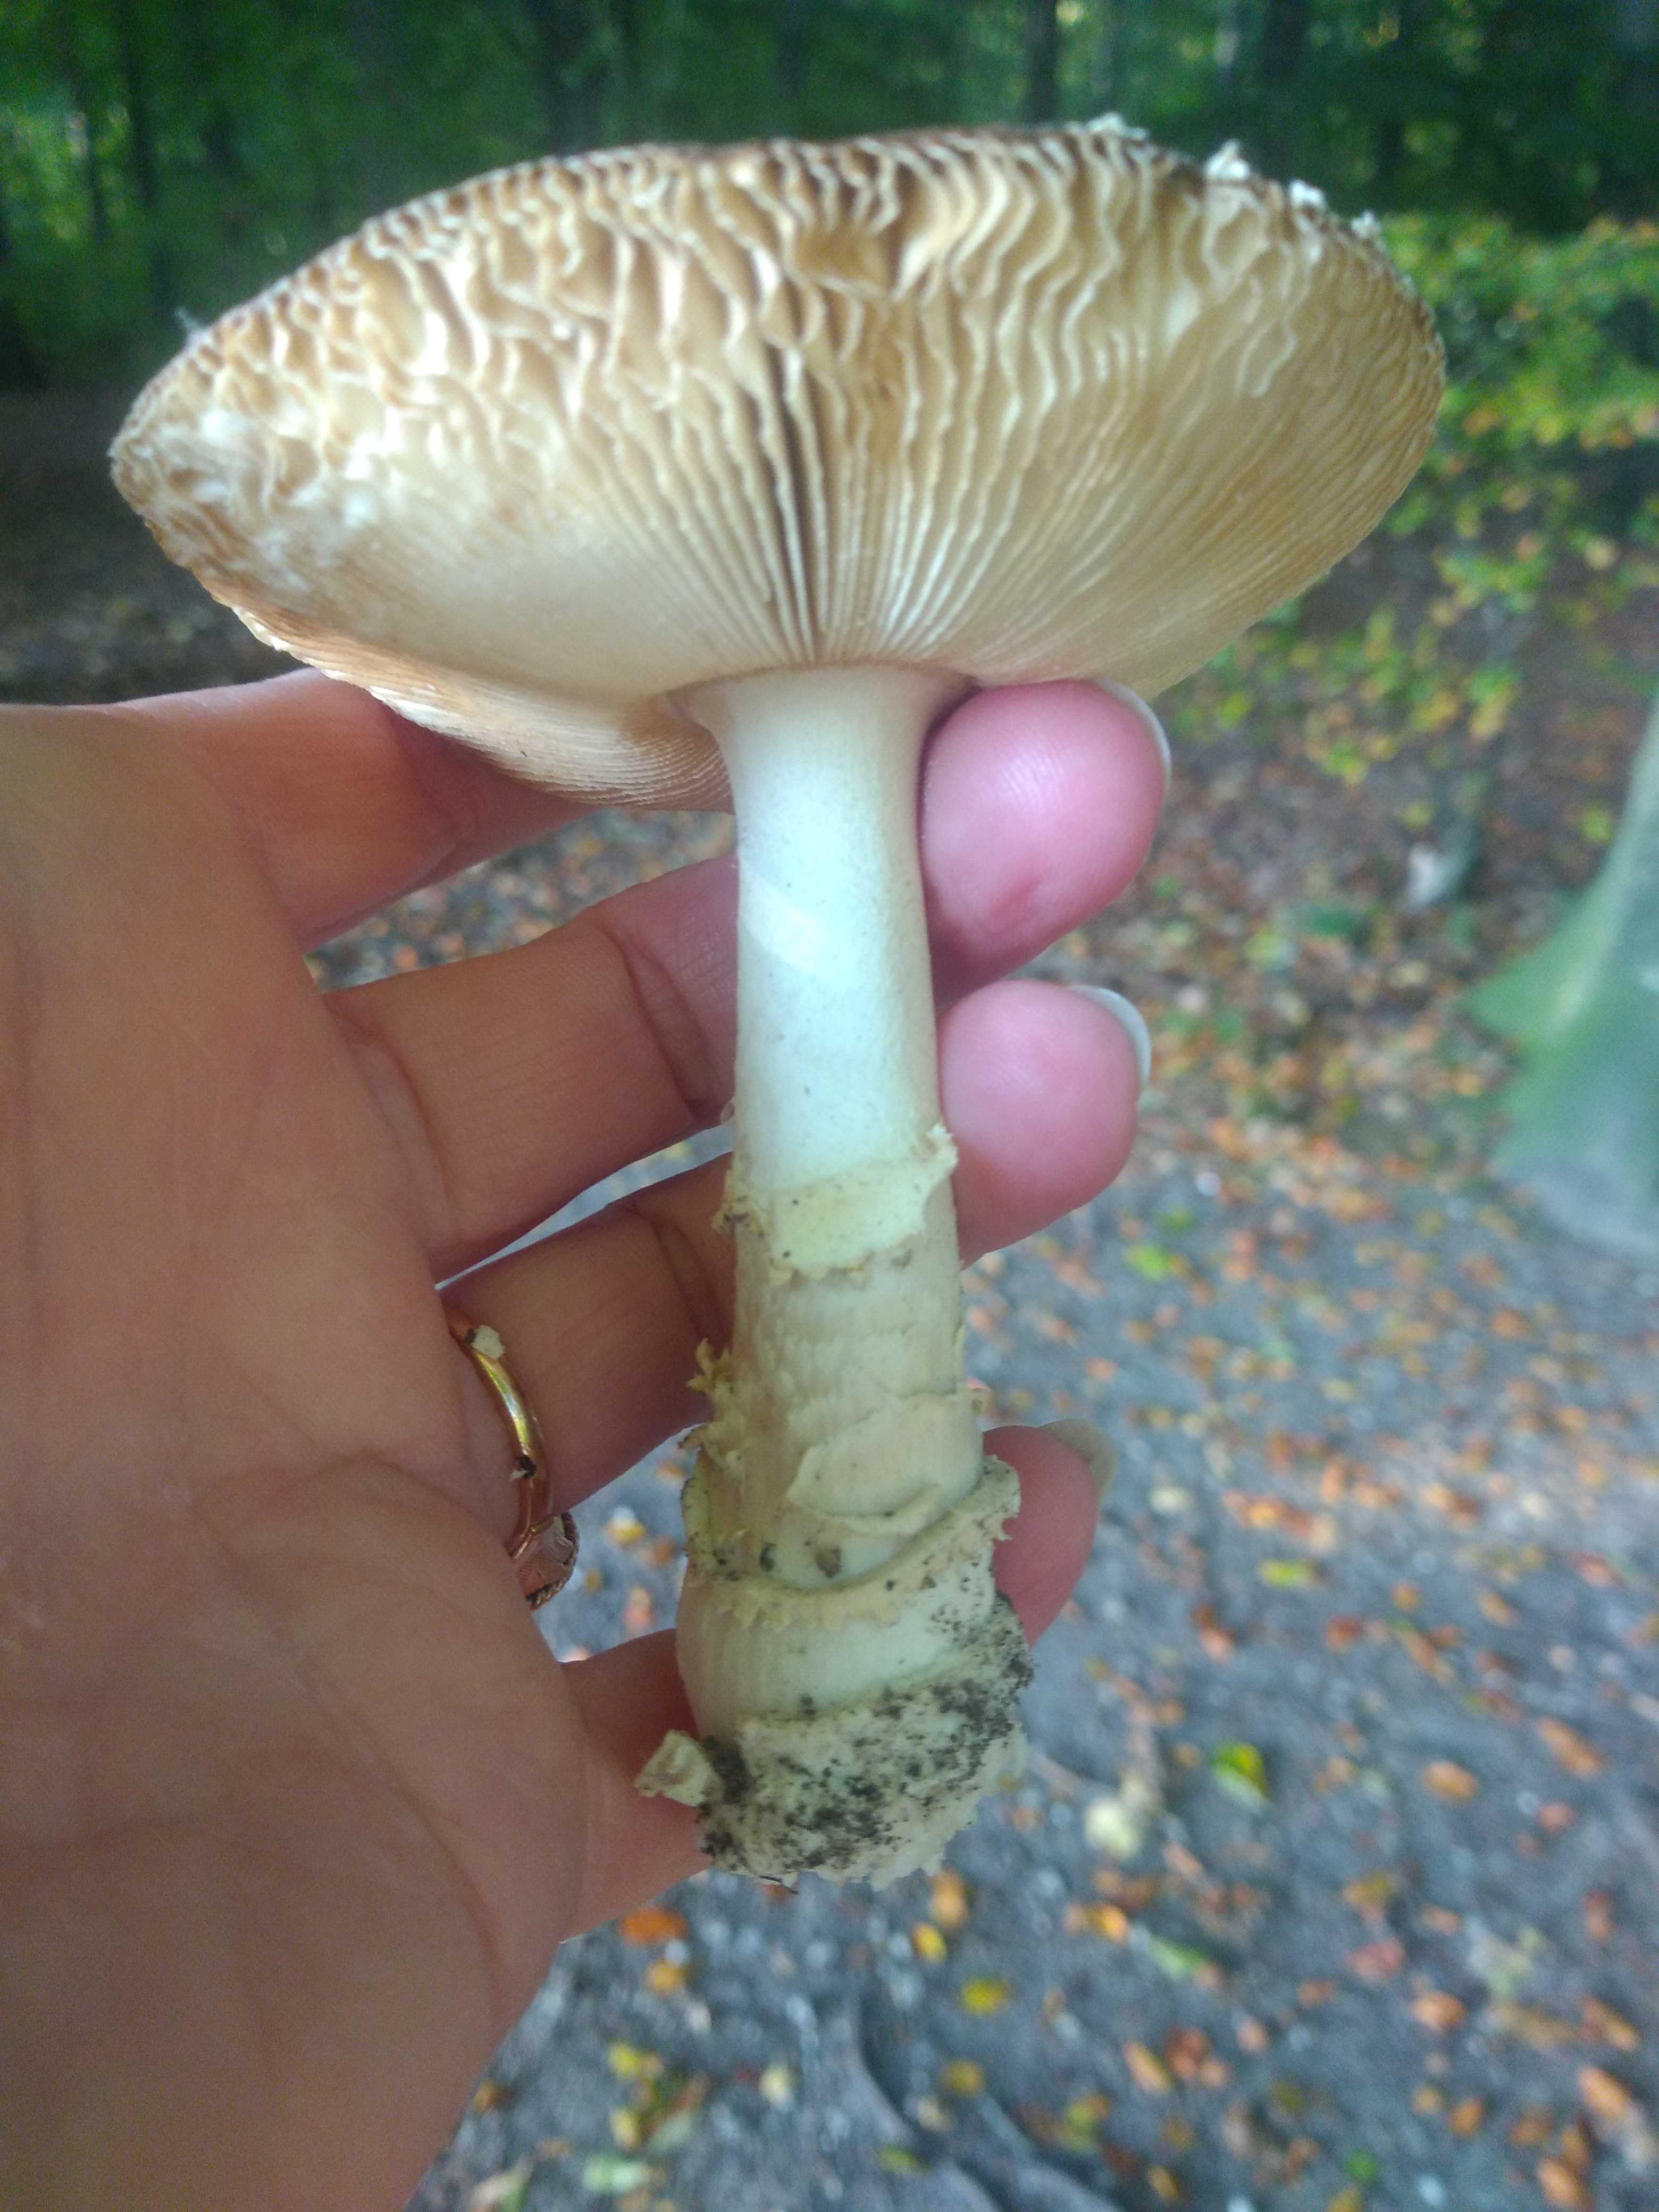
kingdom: Fungi
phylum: Basidiomycota
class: Agaricomycetes
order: Agaricales
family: Amanitaceae
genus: Amanita
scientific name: Amanita pantherina
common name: panter-fluesvamp
